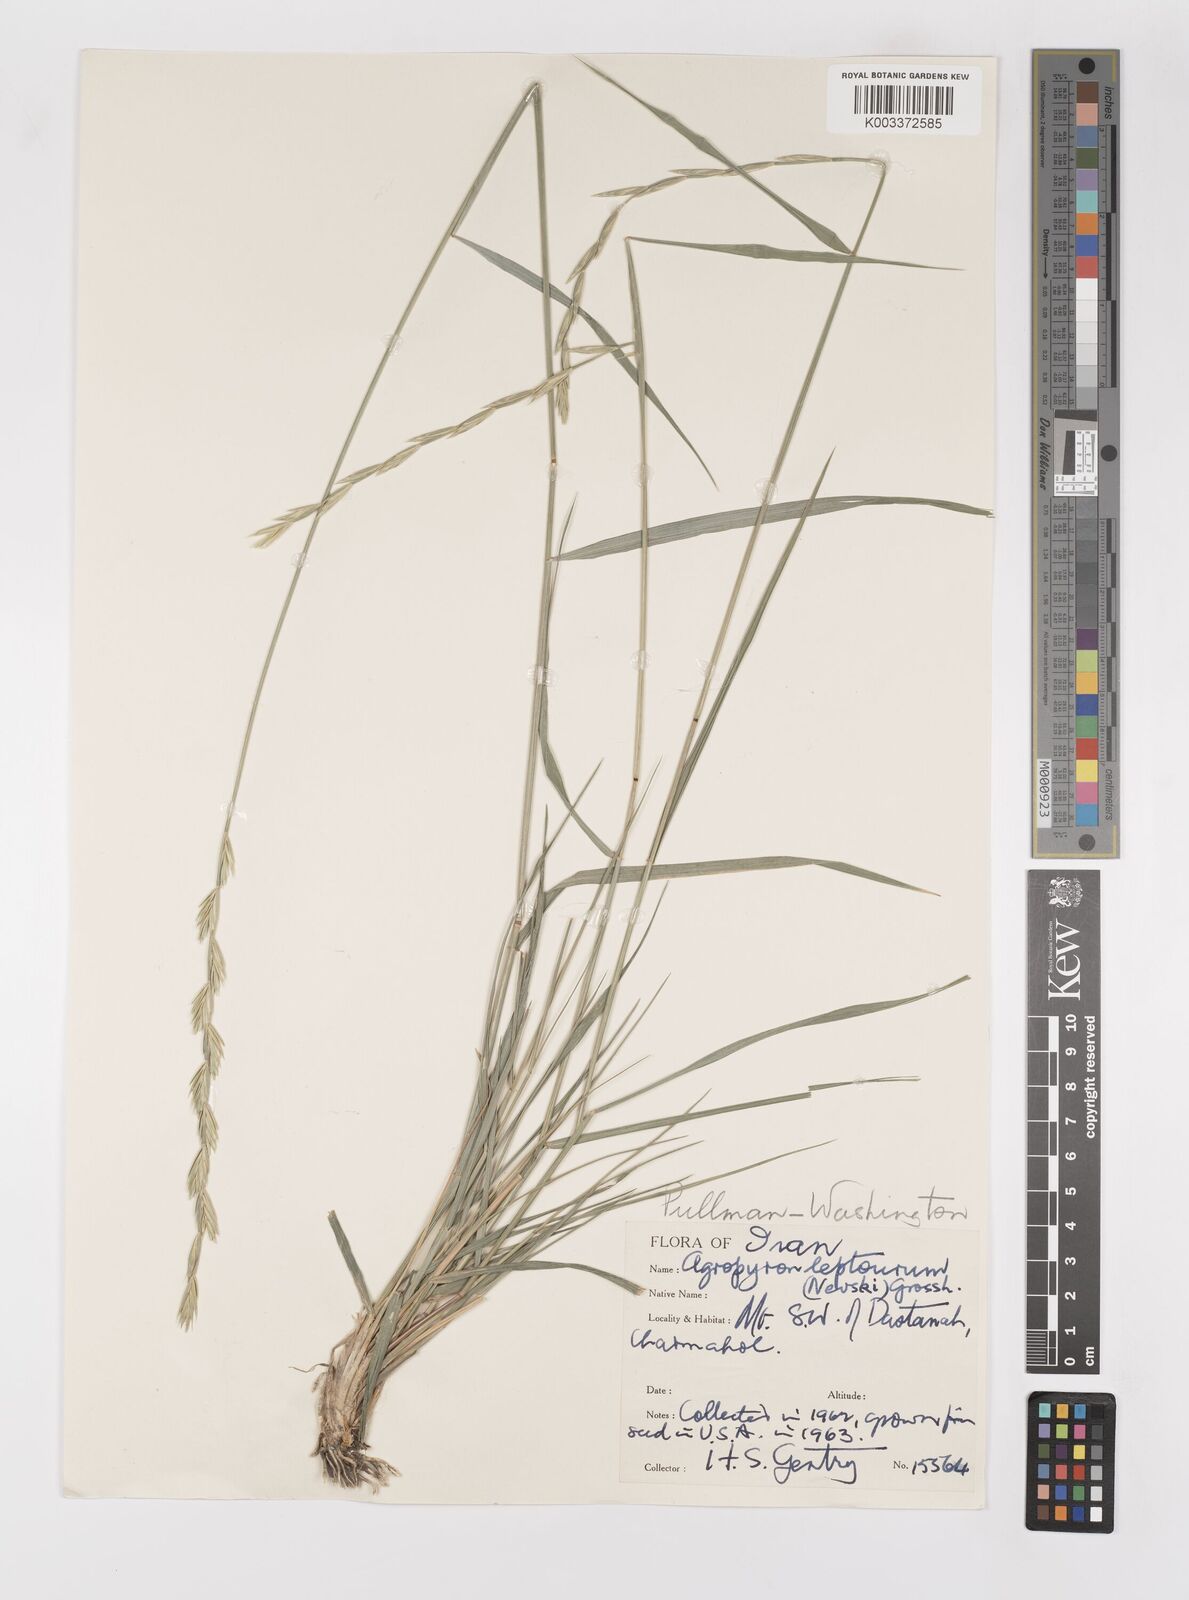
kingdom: Plantae
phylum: Tracheophyta
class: Liliopsida
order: Poales
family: Poaceae
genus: Elymus
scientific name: Elymus transhyrcanus
